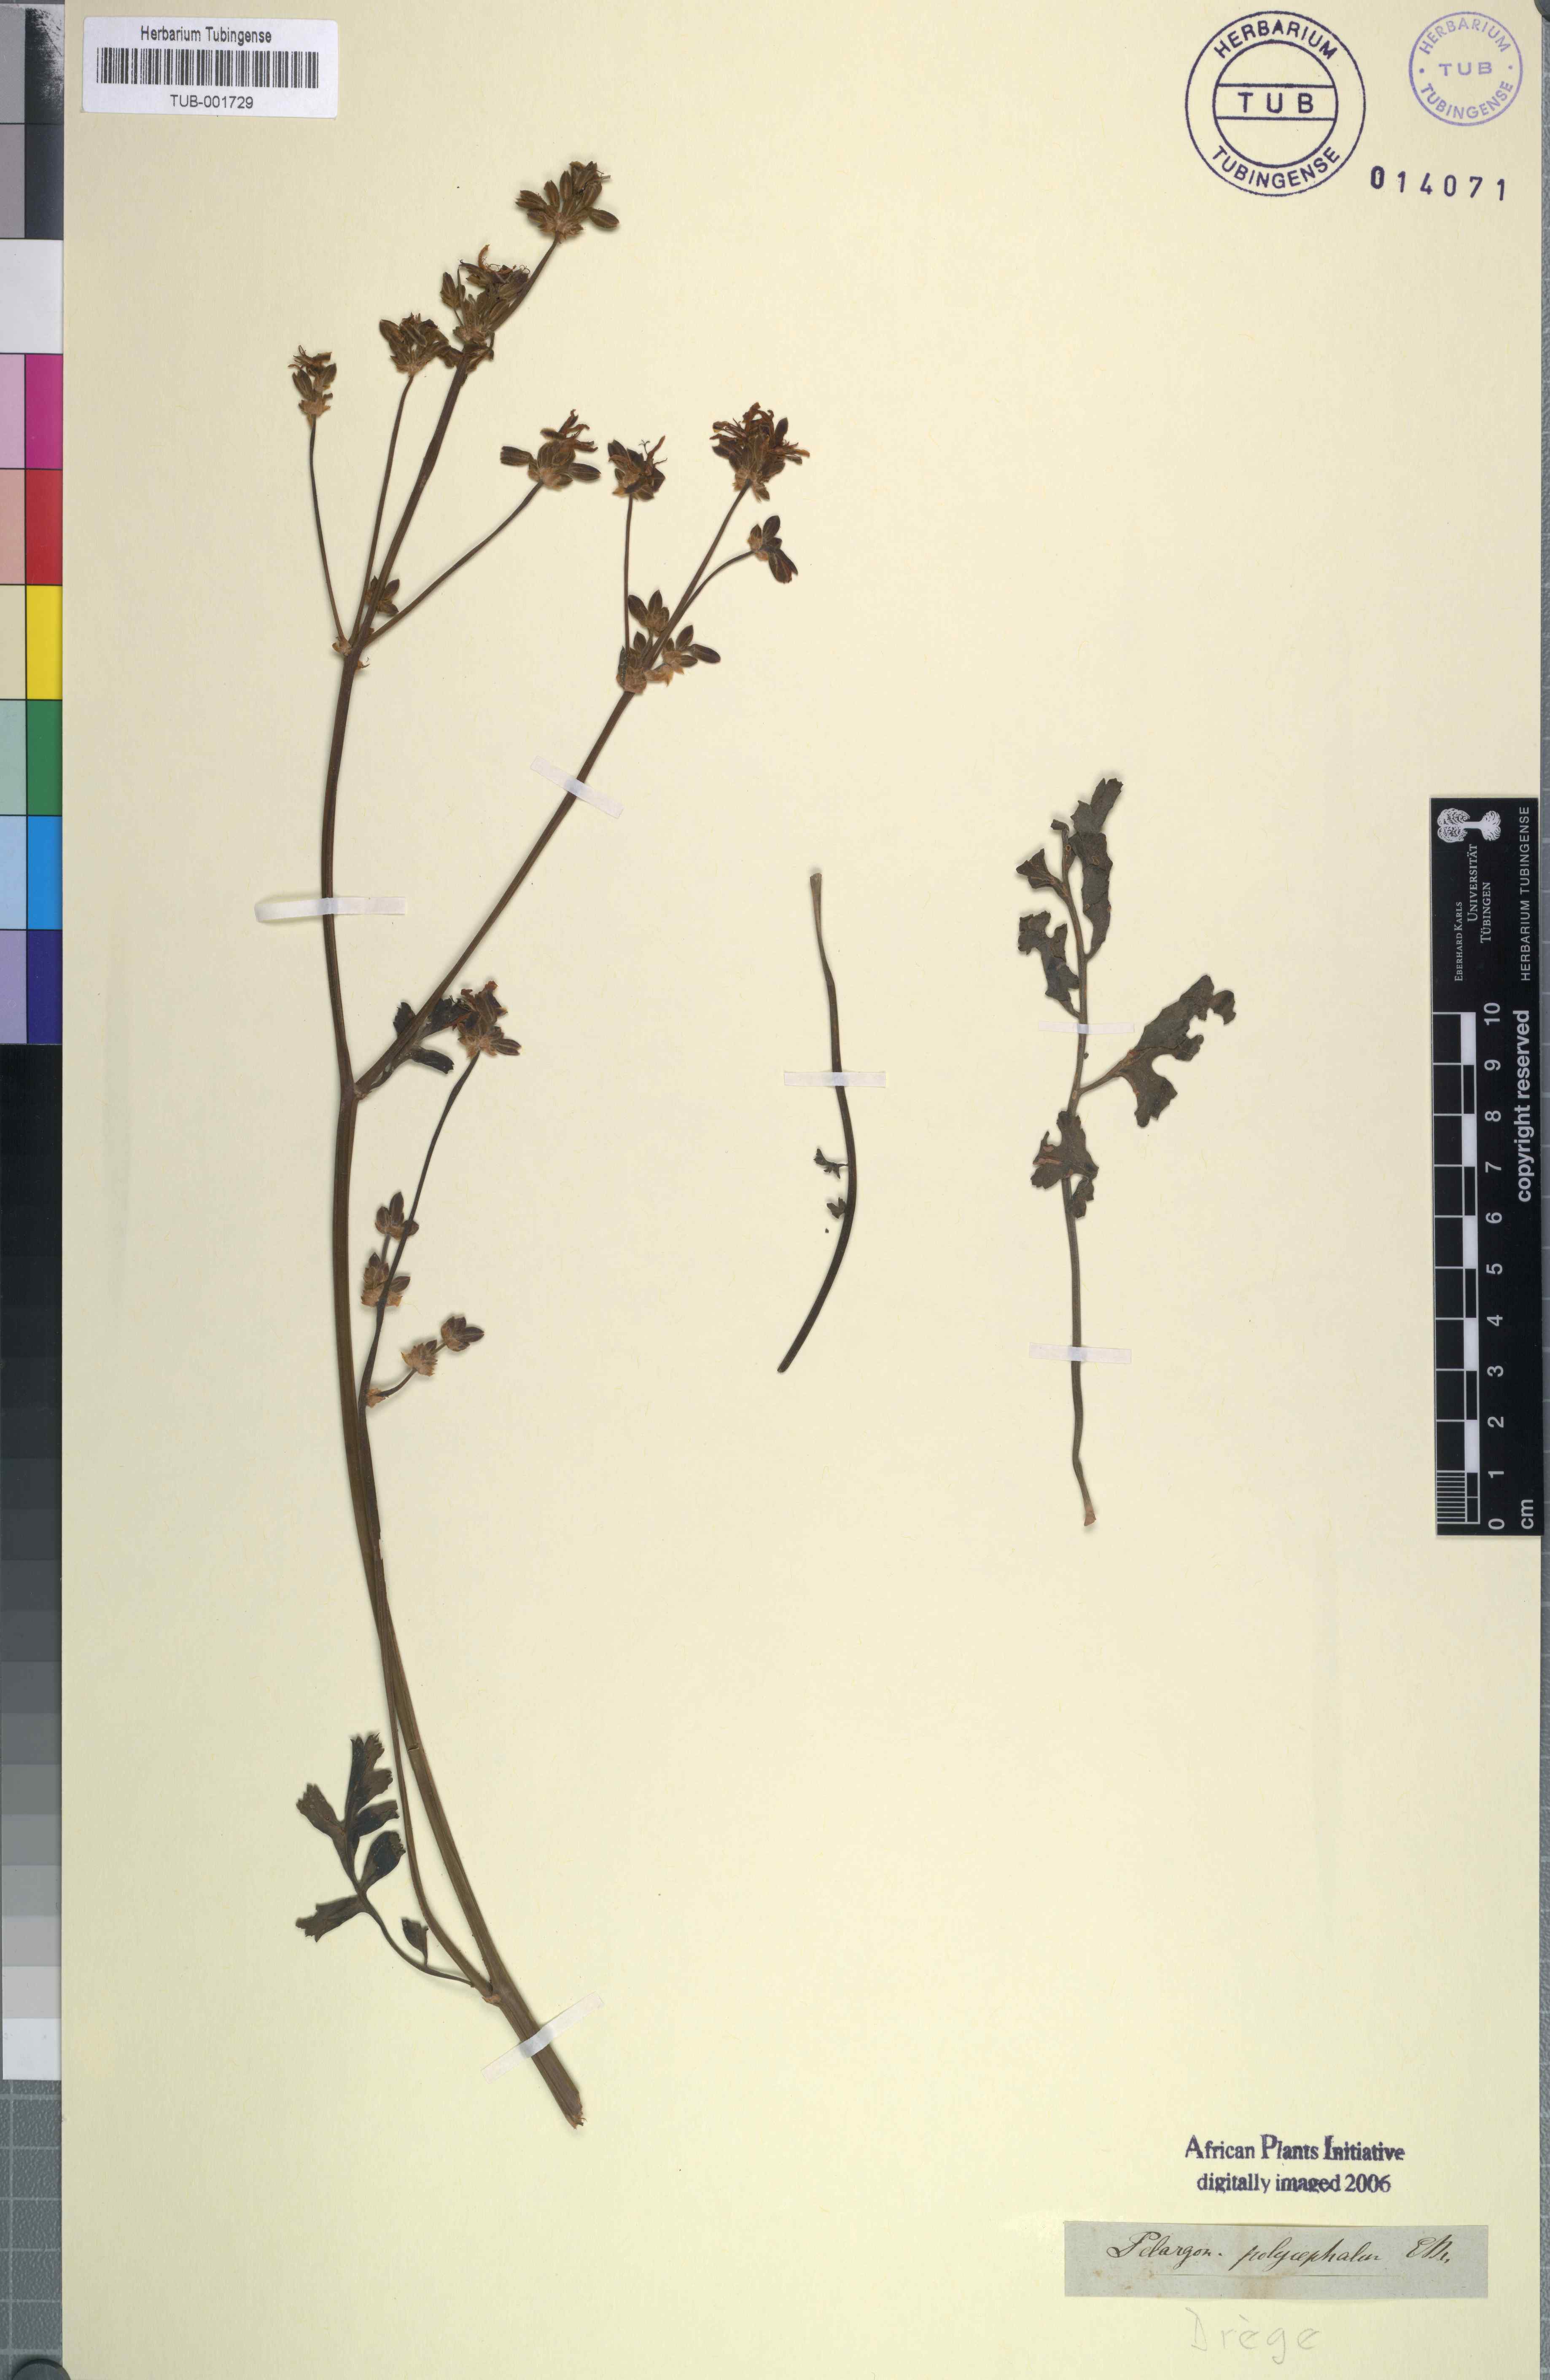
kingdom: Plantae
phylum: Tracheophyta
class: Magnoliopsida
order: Geraniales
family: Geraniaceae
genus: Pelargonium
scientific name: Pelargonium carnosum
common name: Fleshy-stalk pelargonium
